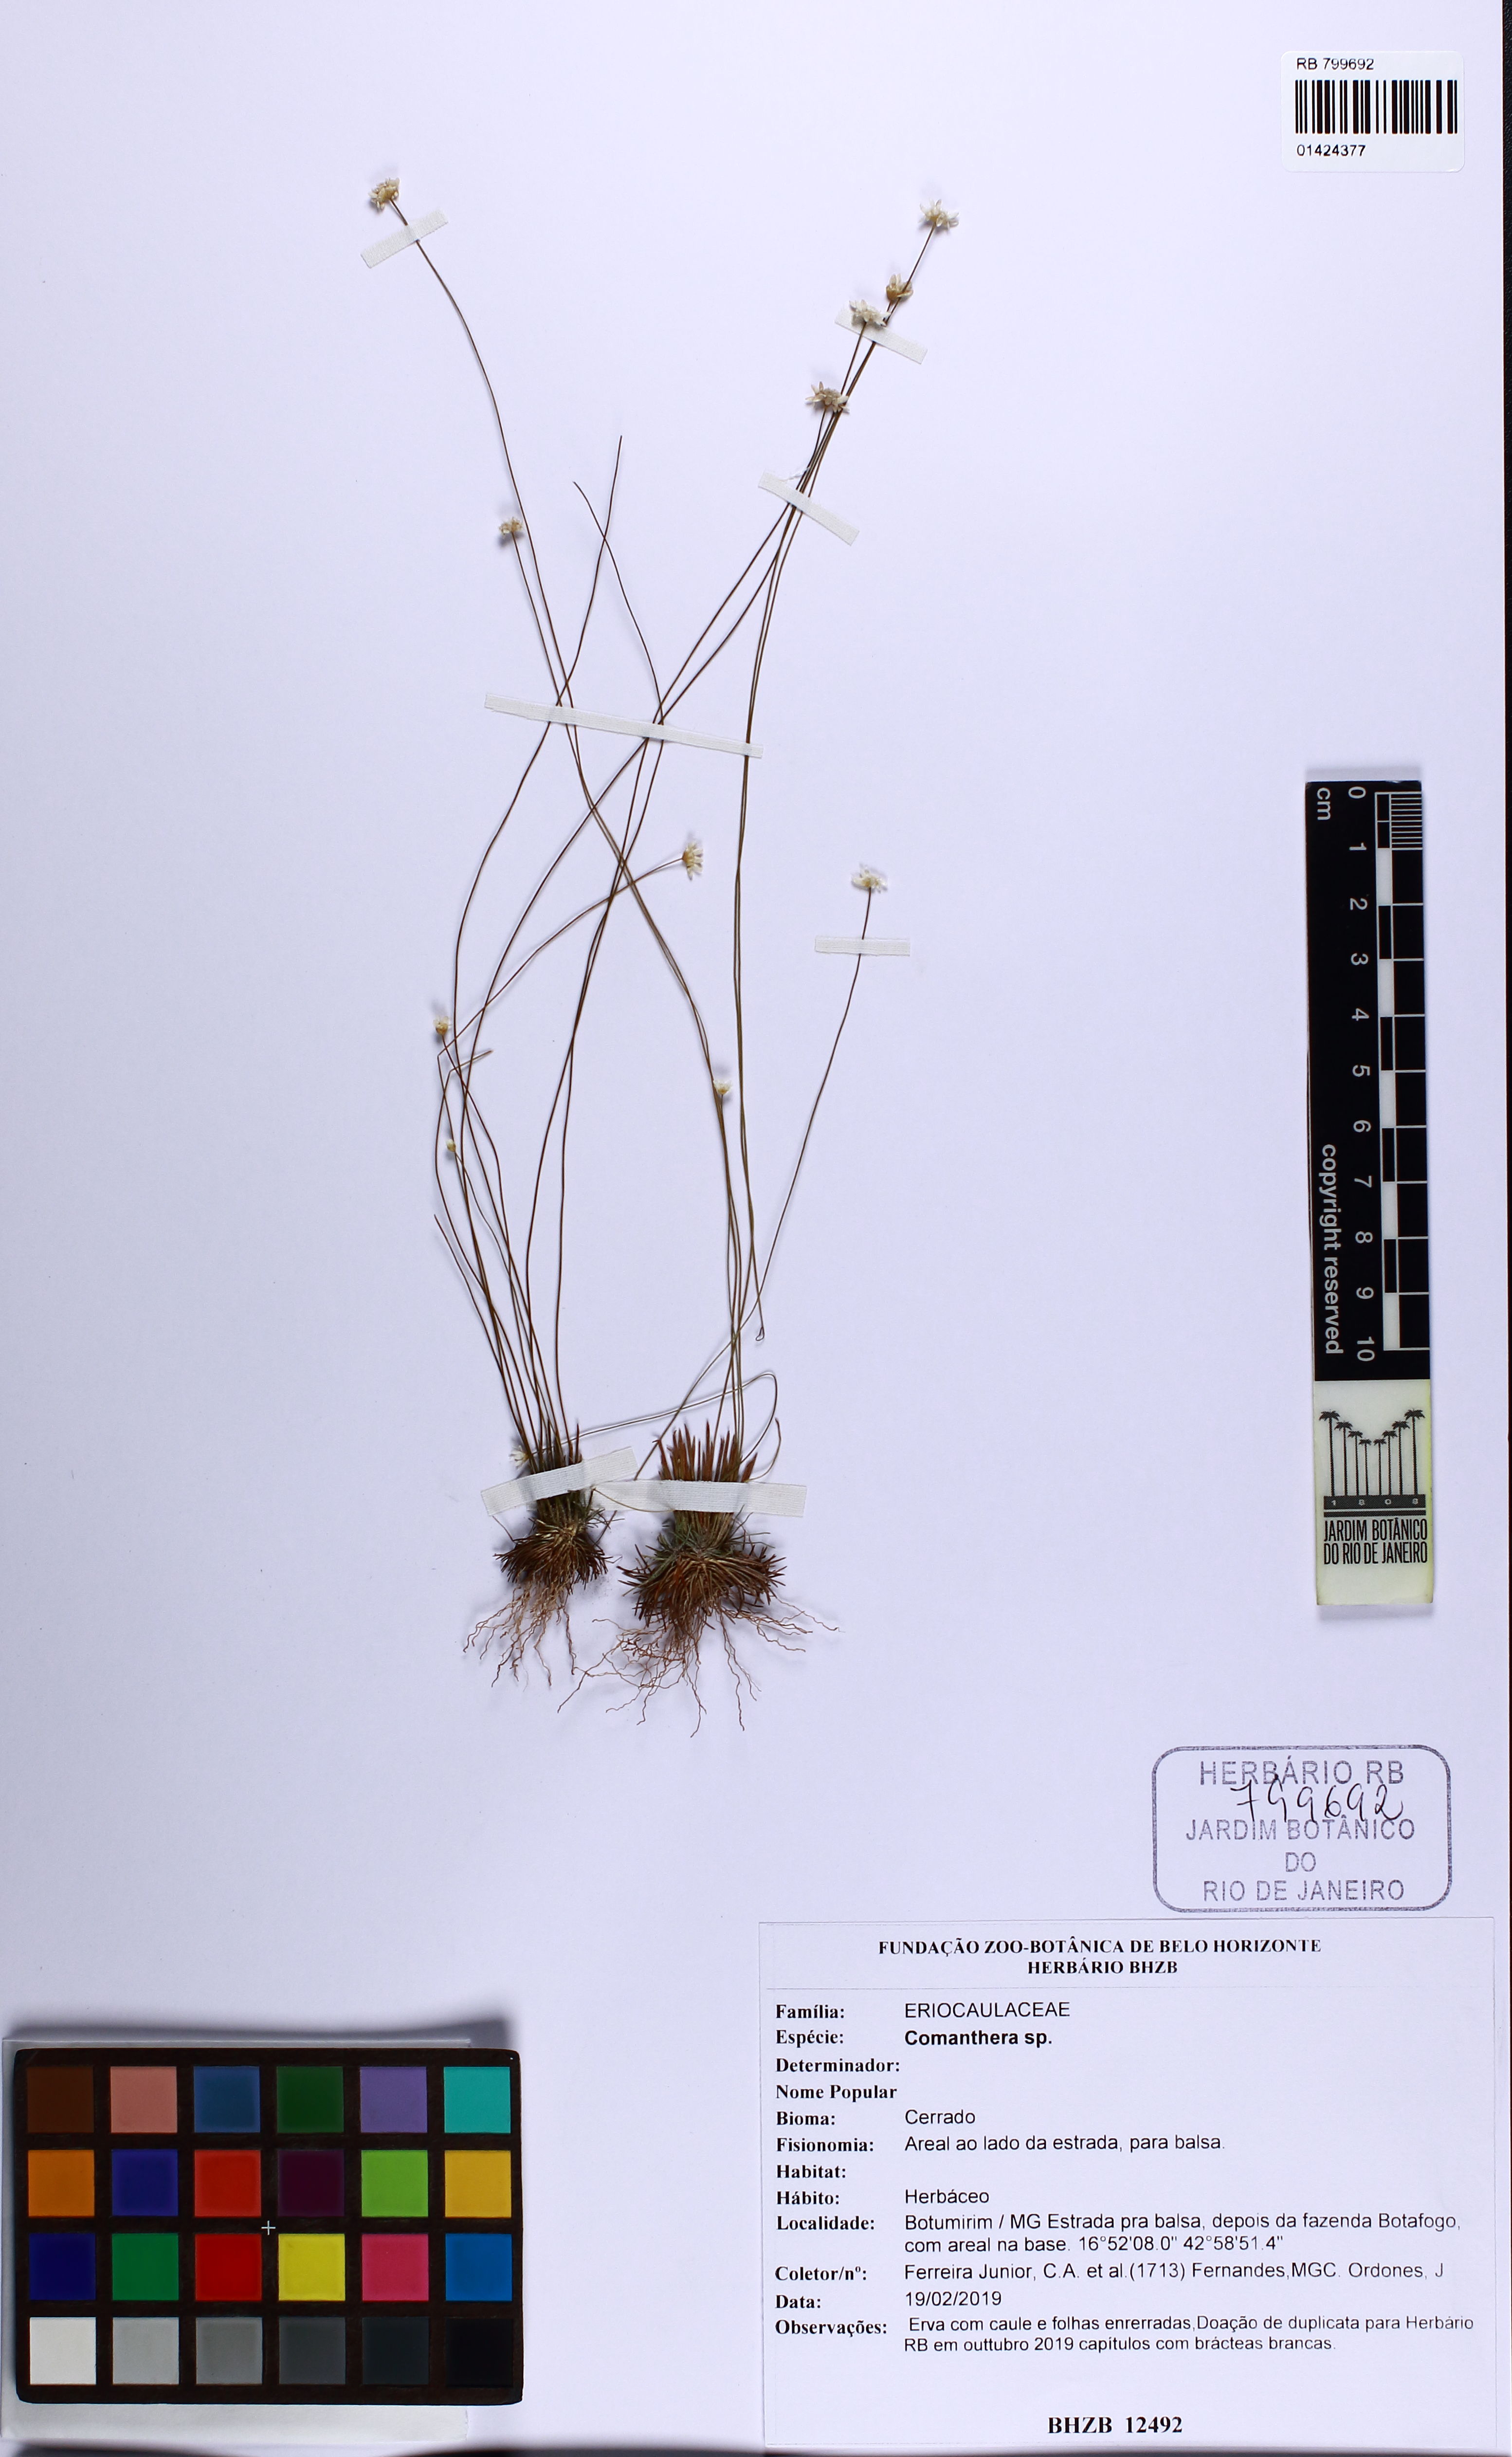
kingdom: Plantae
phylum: Tracheophyta
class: Liliopsida
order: Poales
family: Eriocaulaceae
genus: Comanthera
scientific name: Comanthera aciphylla
